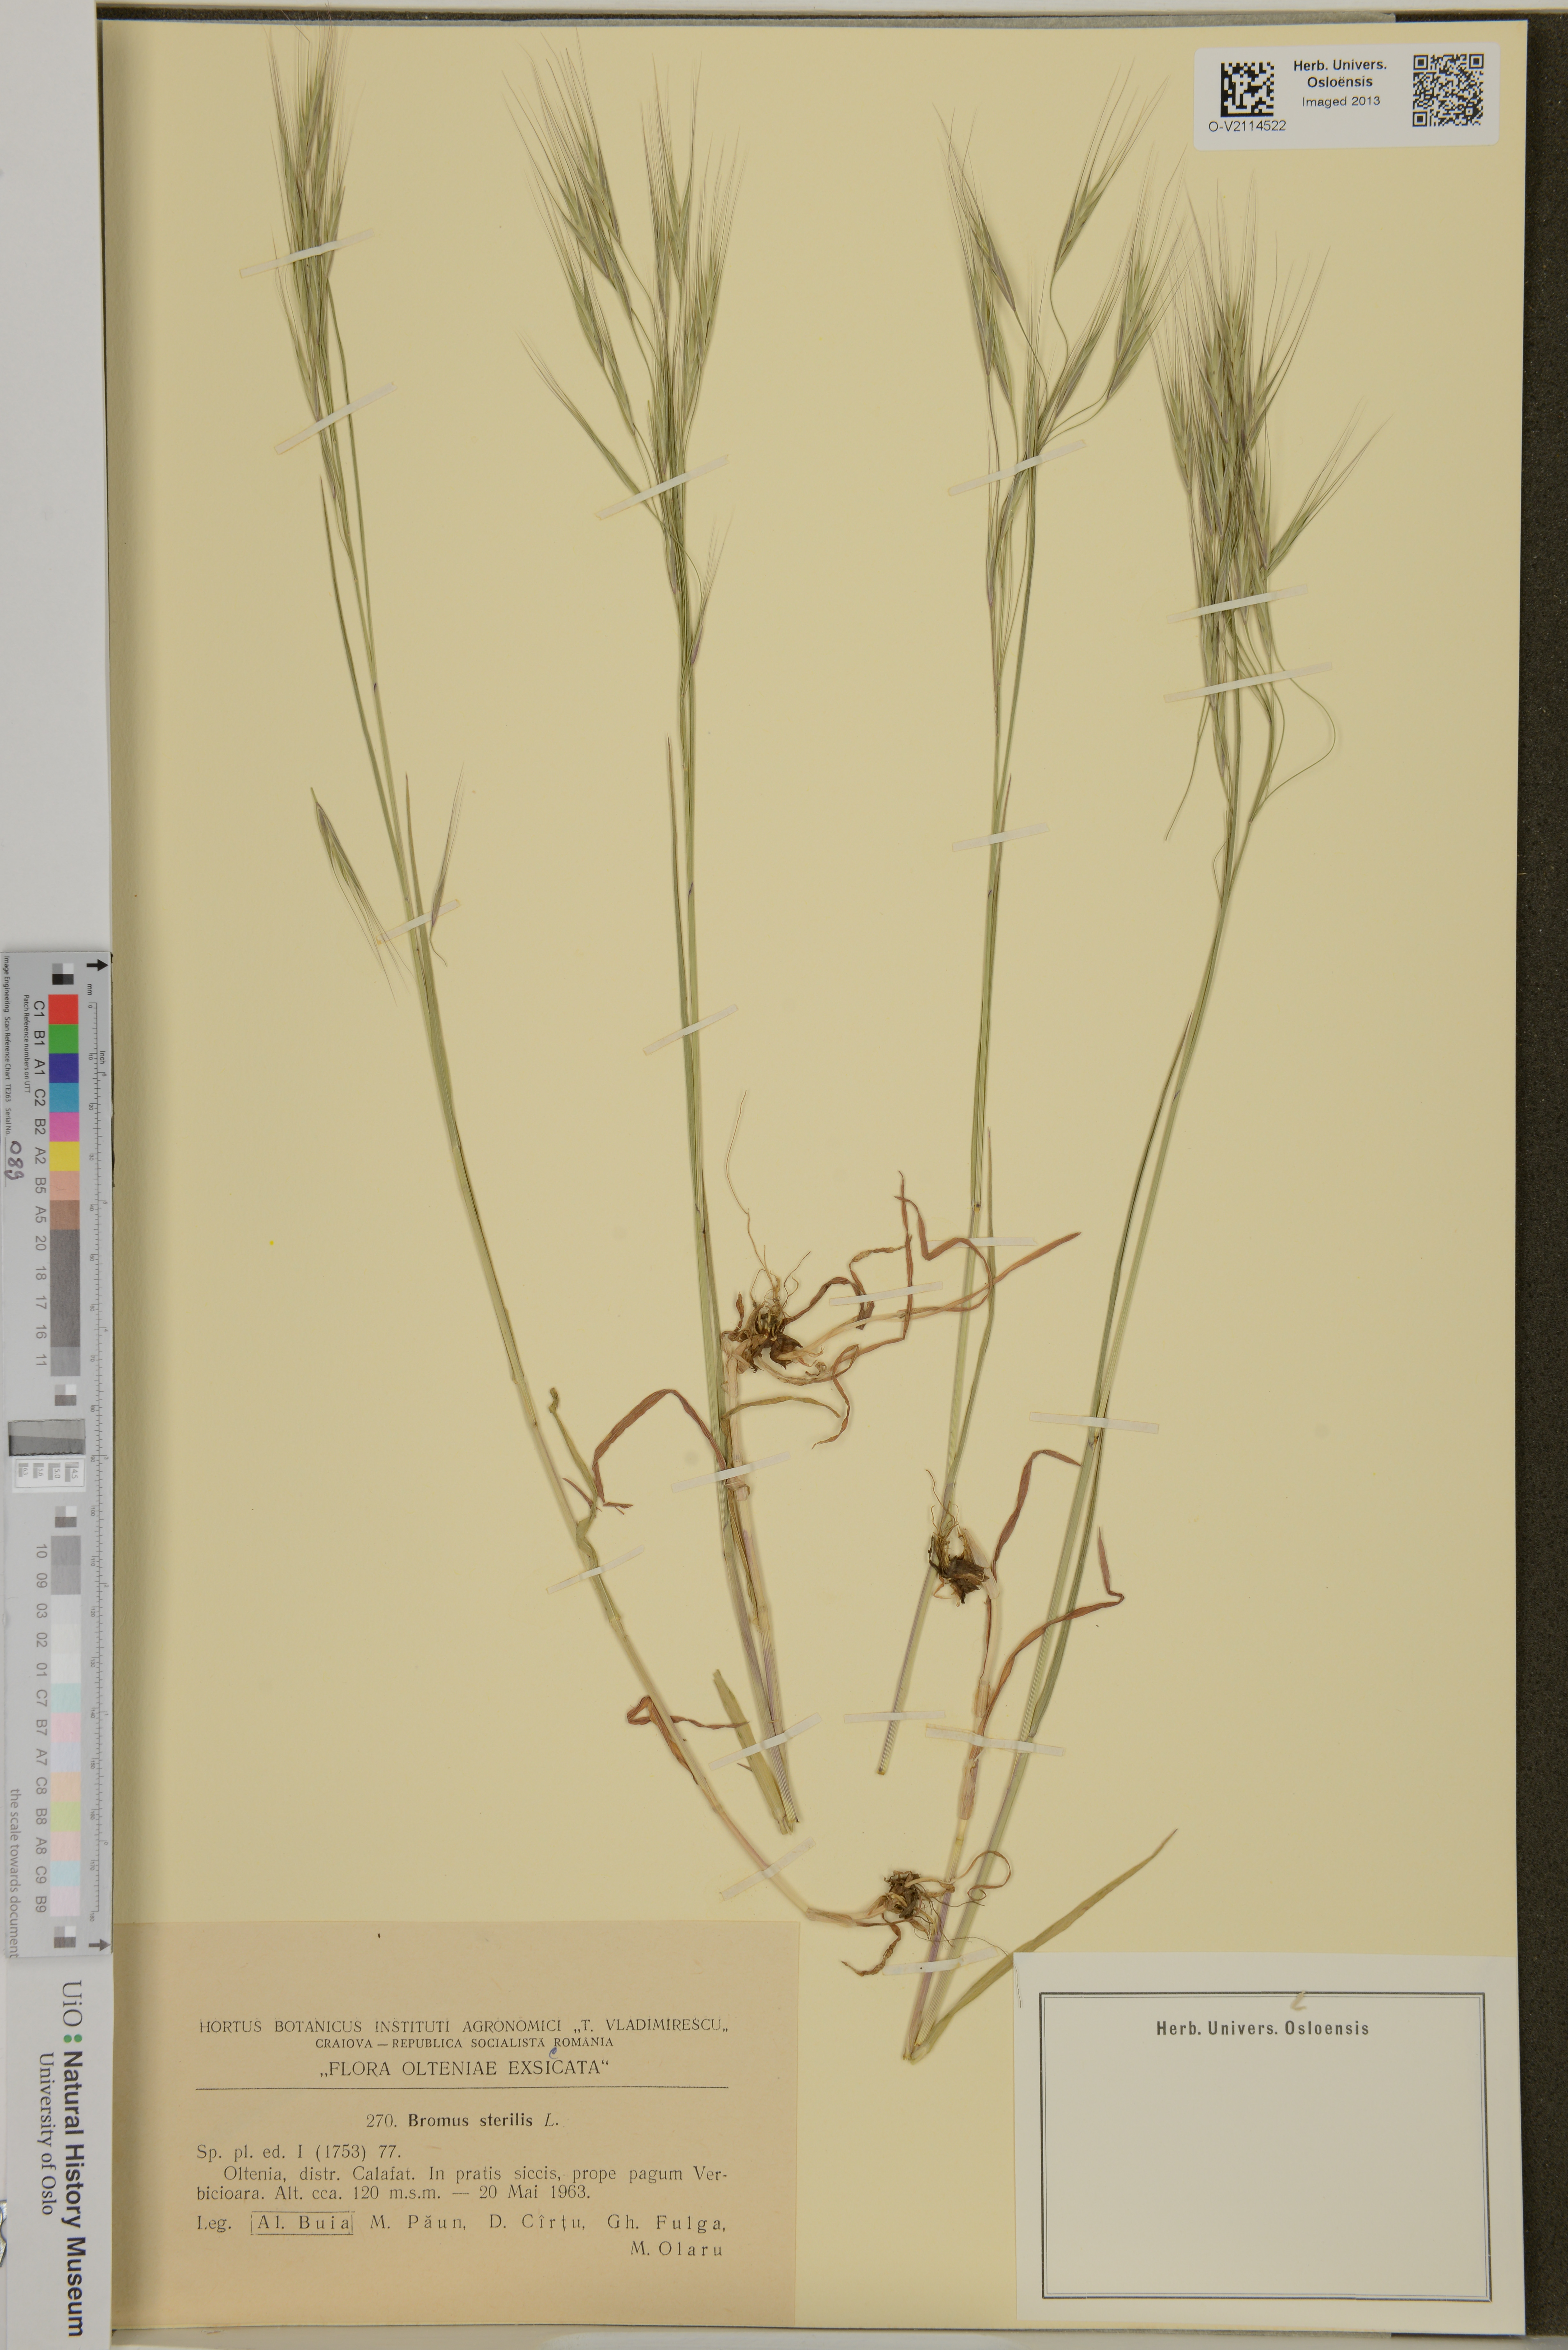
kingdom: Plantae
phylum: Tracheophyta
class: Liliopsida
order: Poales
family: Poaceae
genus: Bromus
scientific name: Bromus sterilis
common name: Poverty brome
